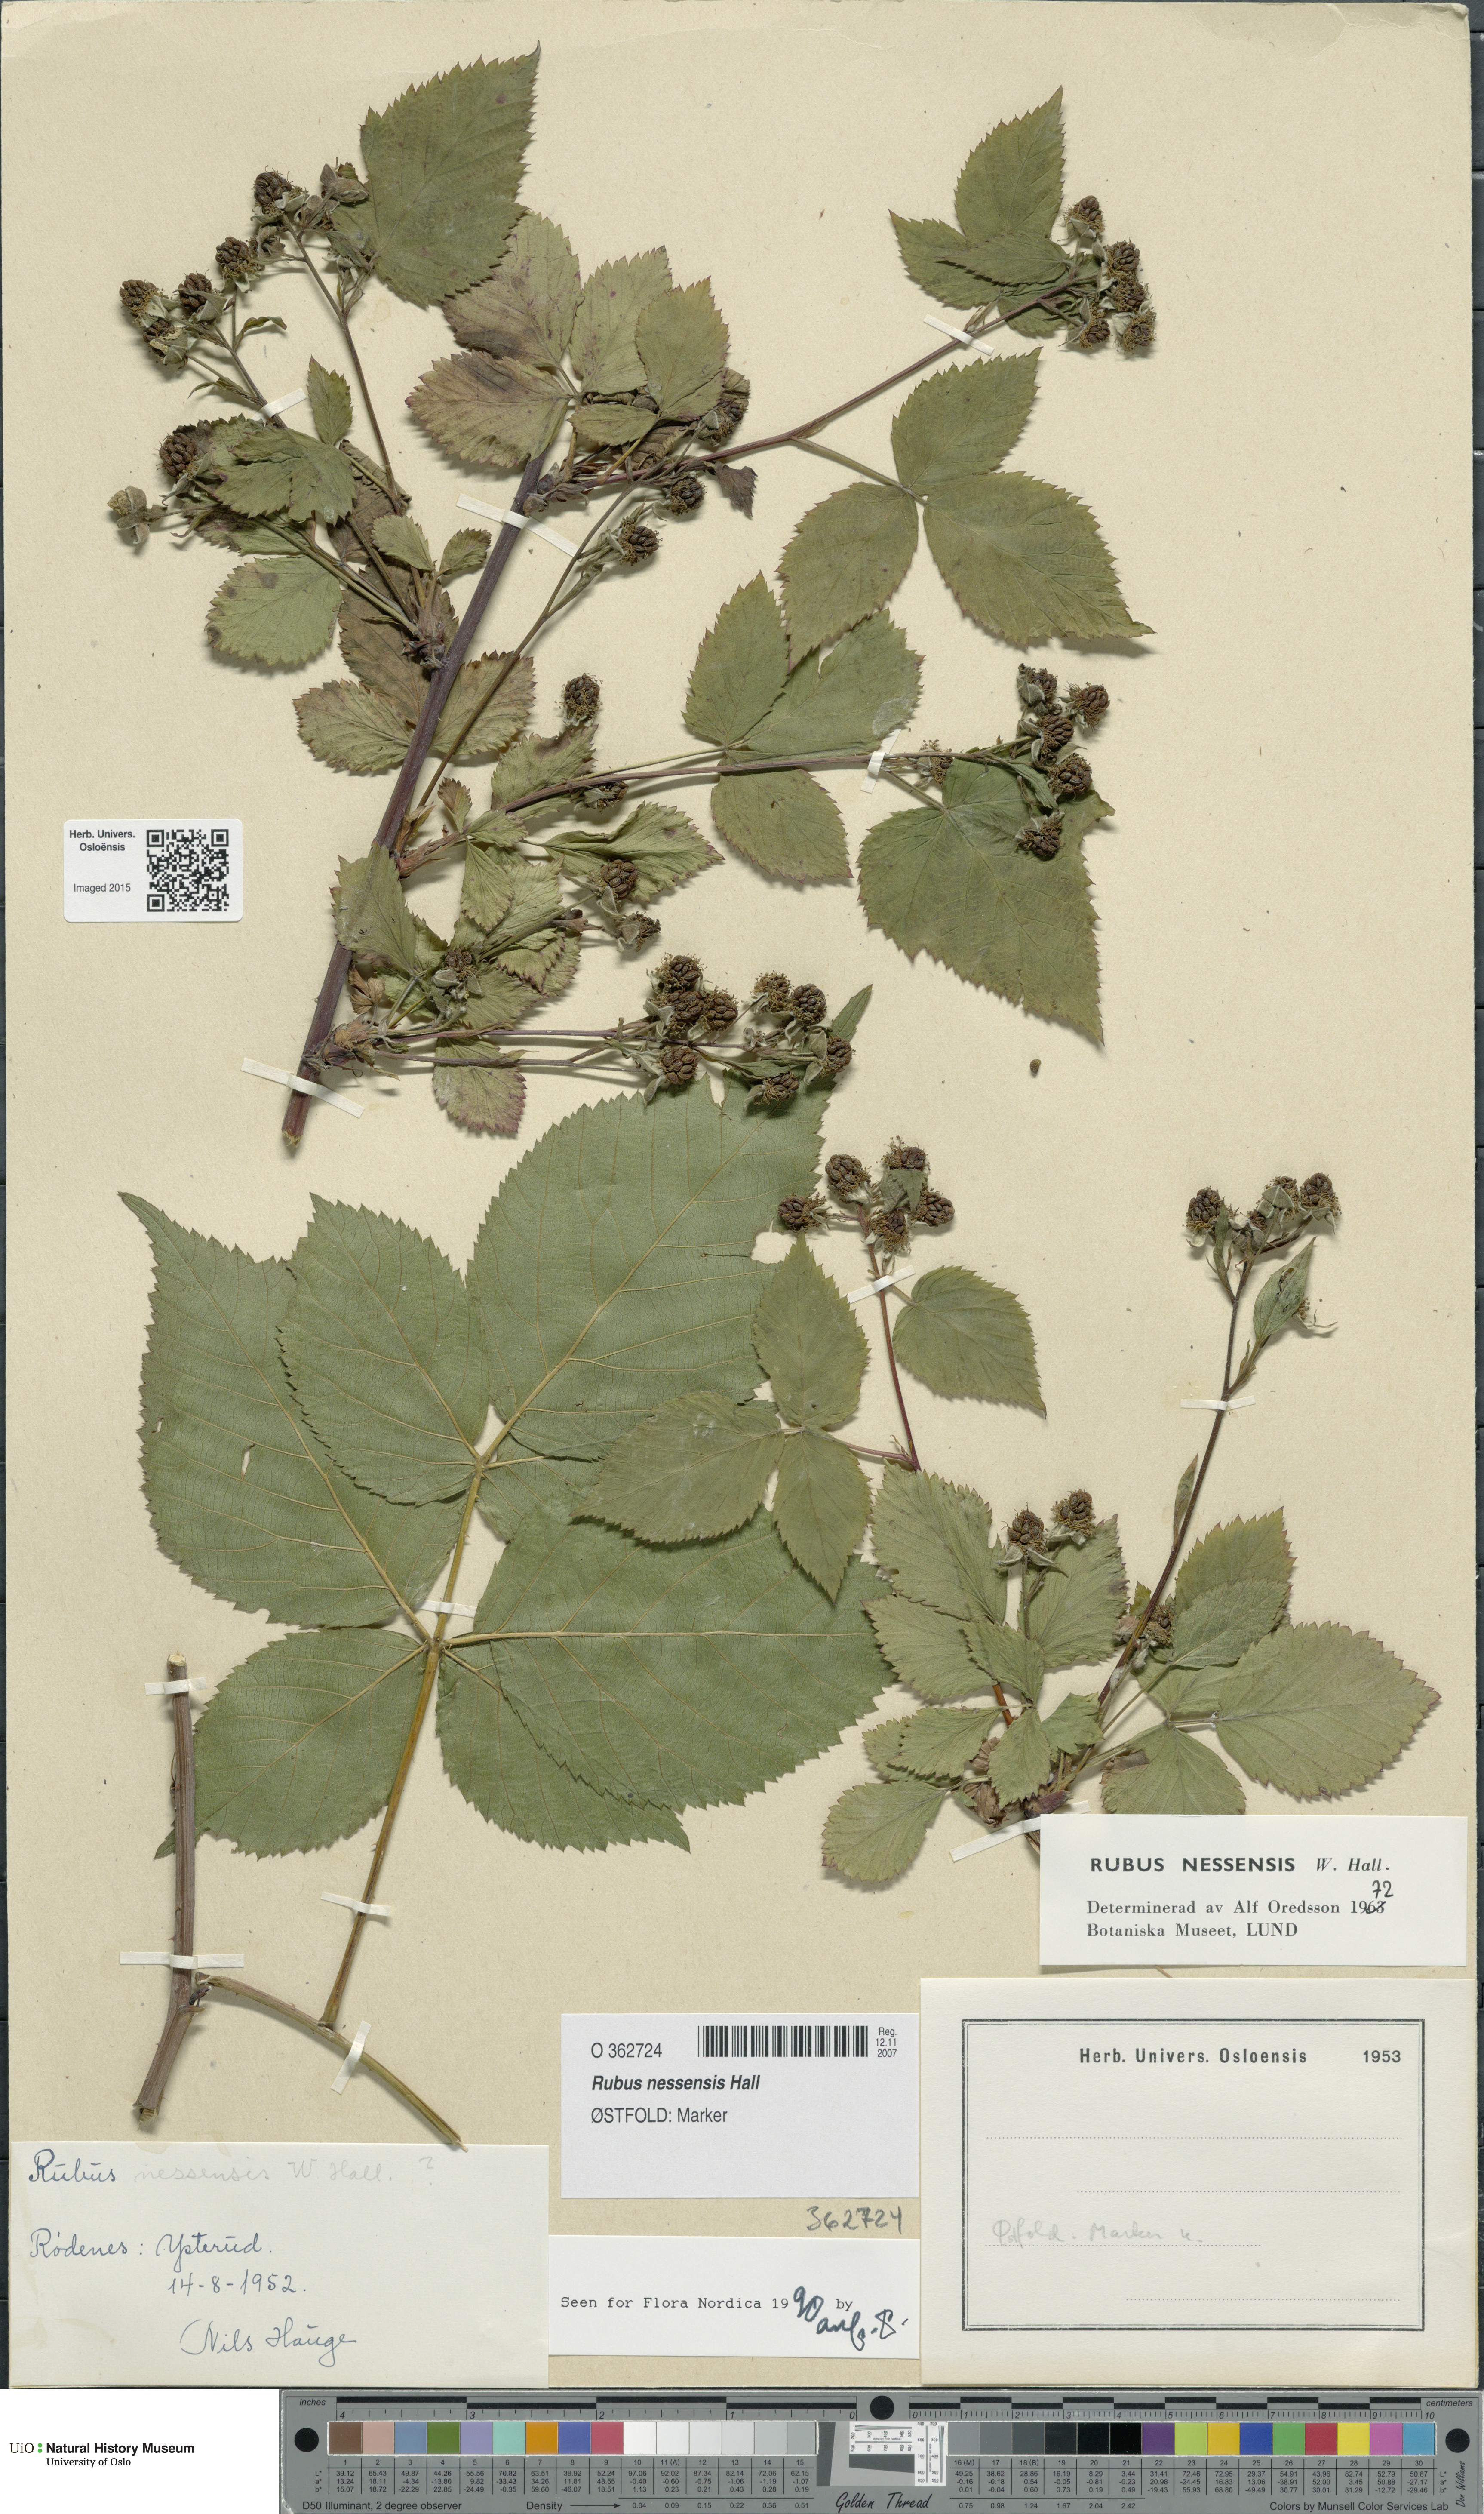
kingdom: Plantae
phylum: Tracheophyta
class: Magnoliopsida
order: Rosales
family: Rosaceae
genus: Rubus
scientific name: Rubus polonicus
